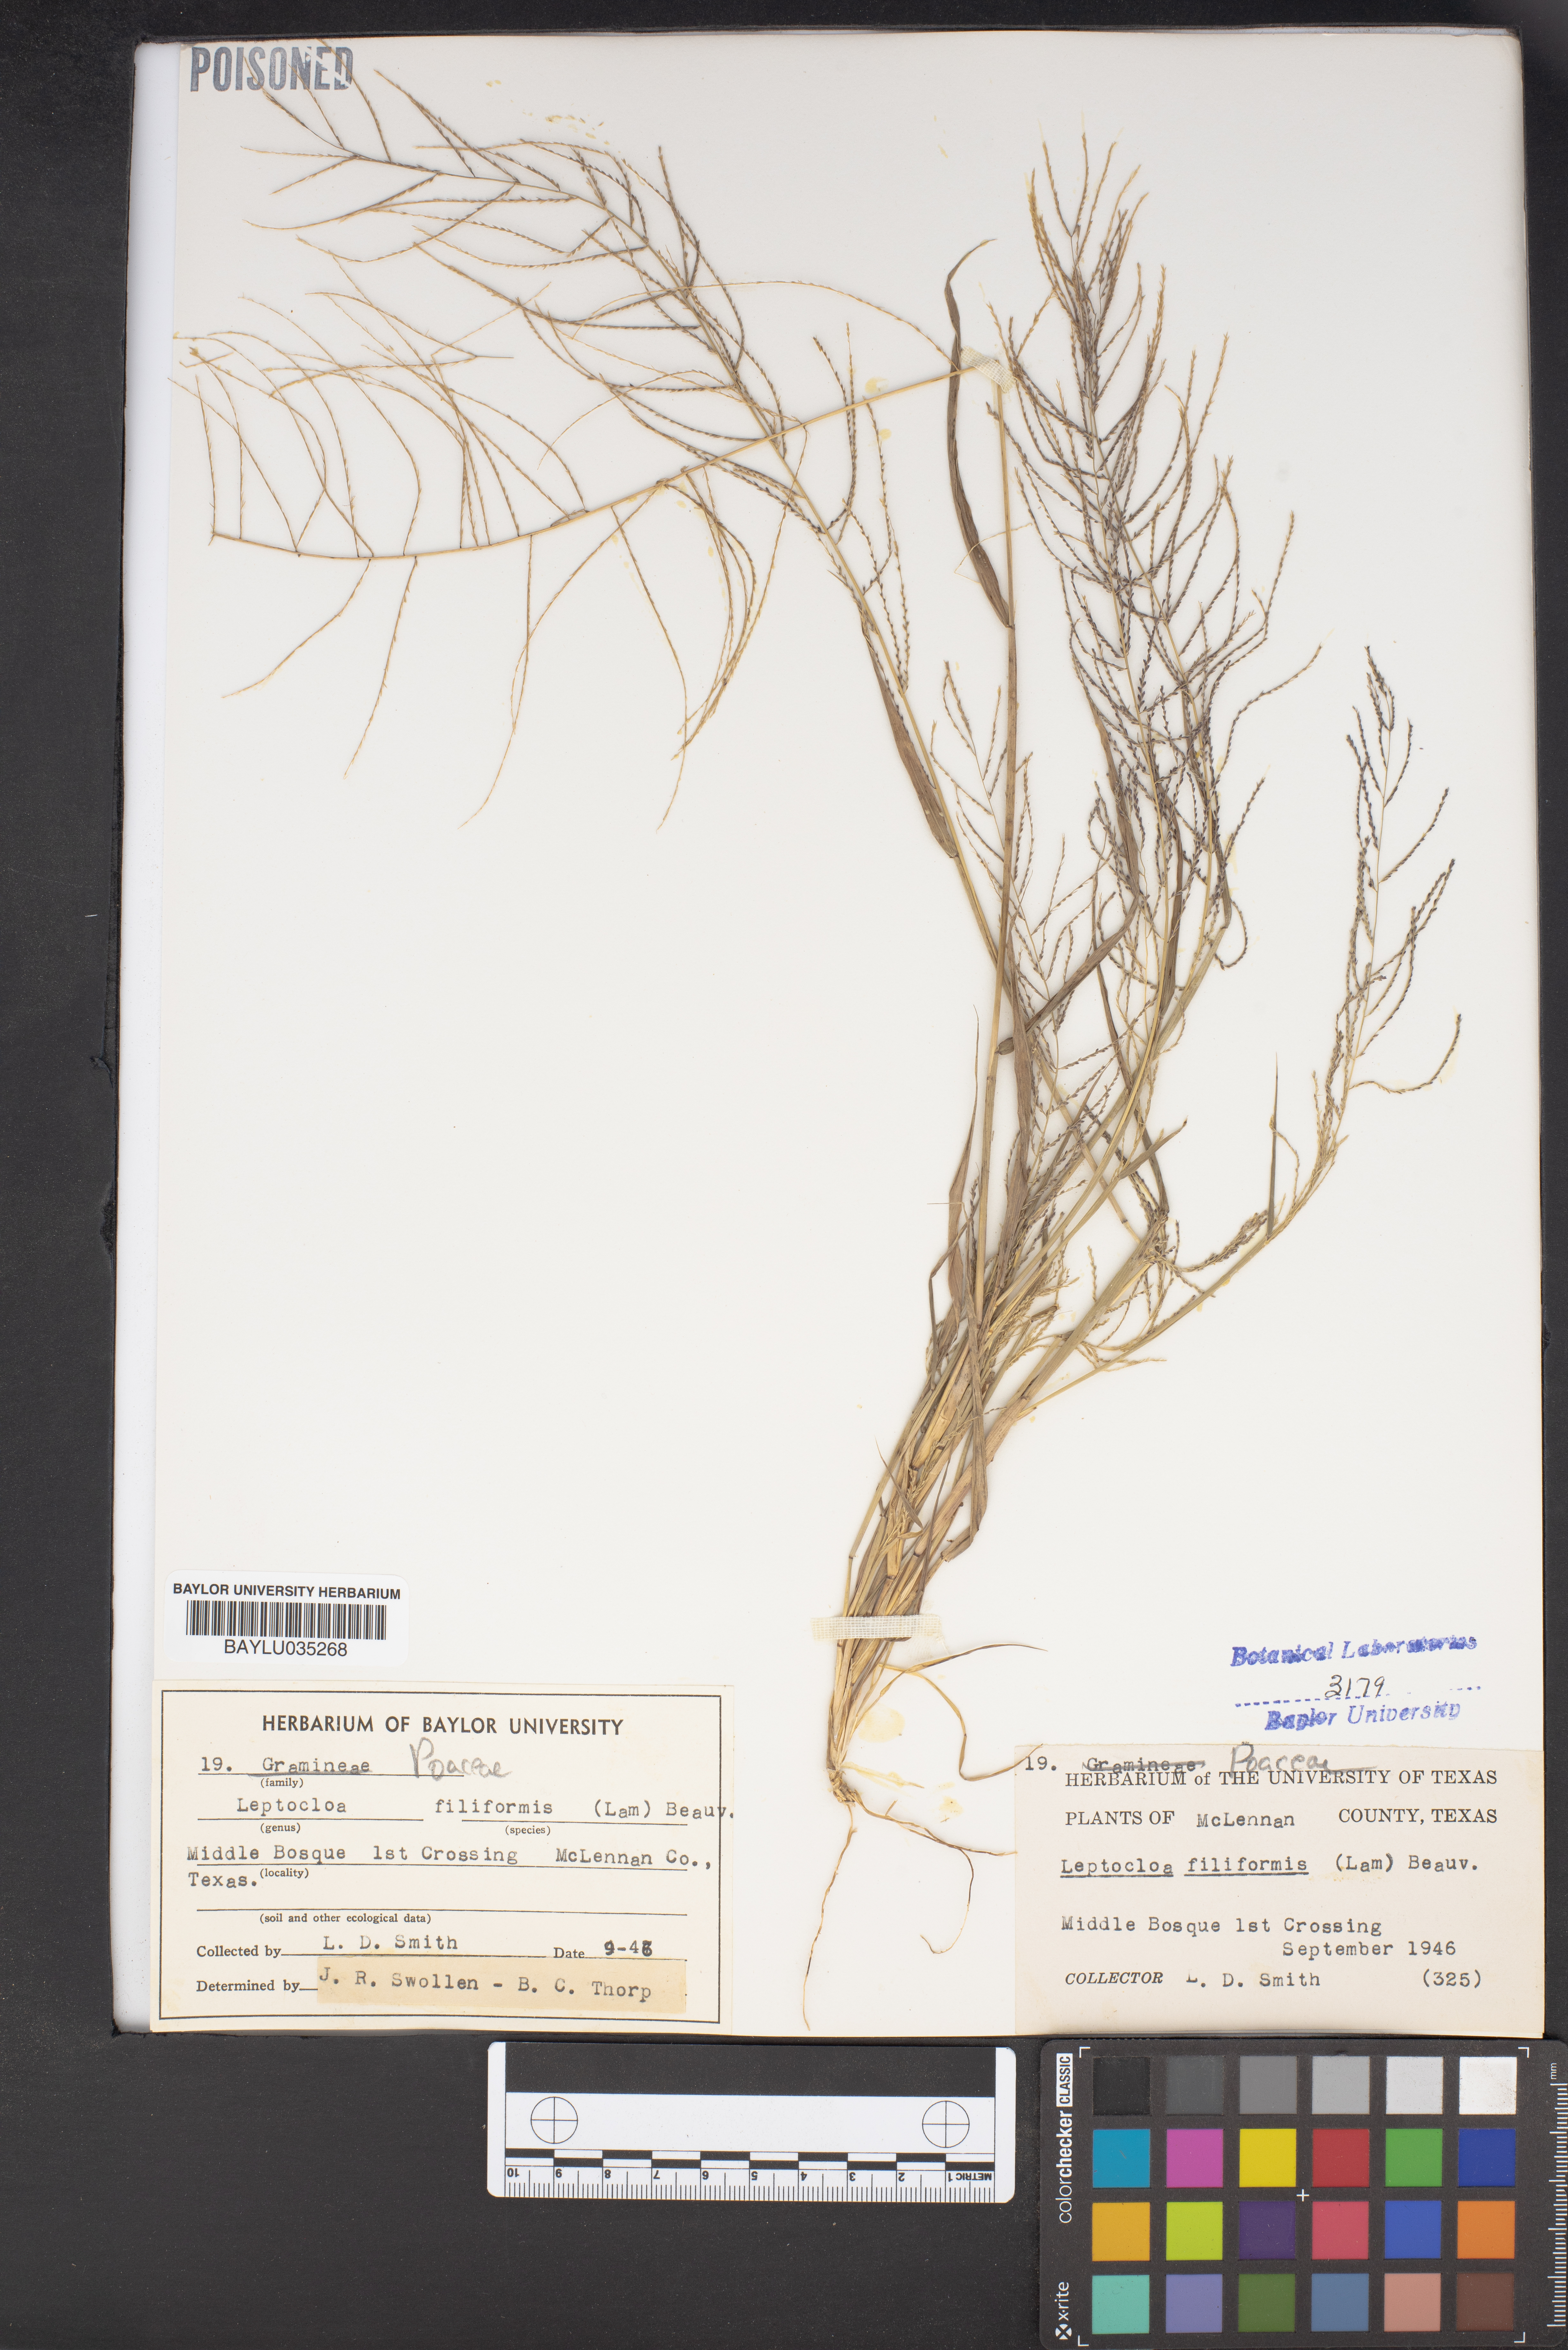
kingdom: Plantae
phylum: Tracheophyta
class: Liliopsida
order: Poales
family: Poaceae
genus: Leptochloa
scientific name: Leptochloa mucronata
